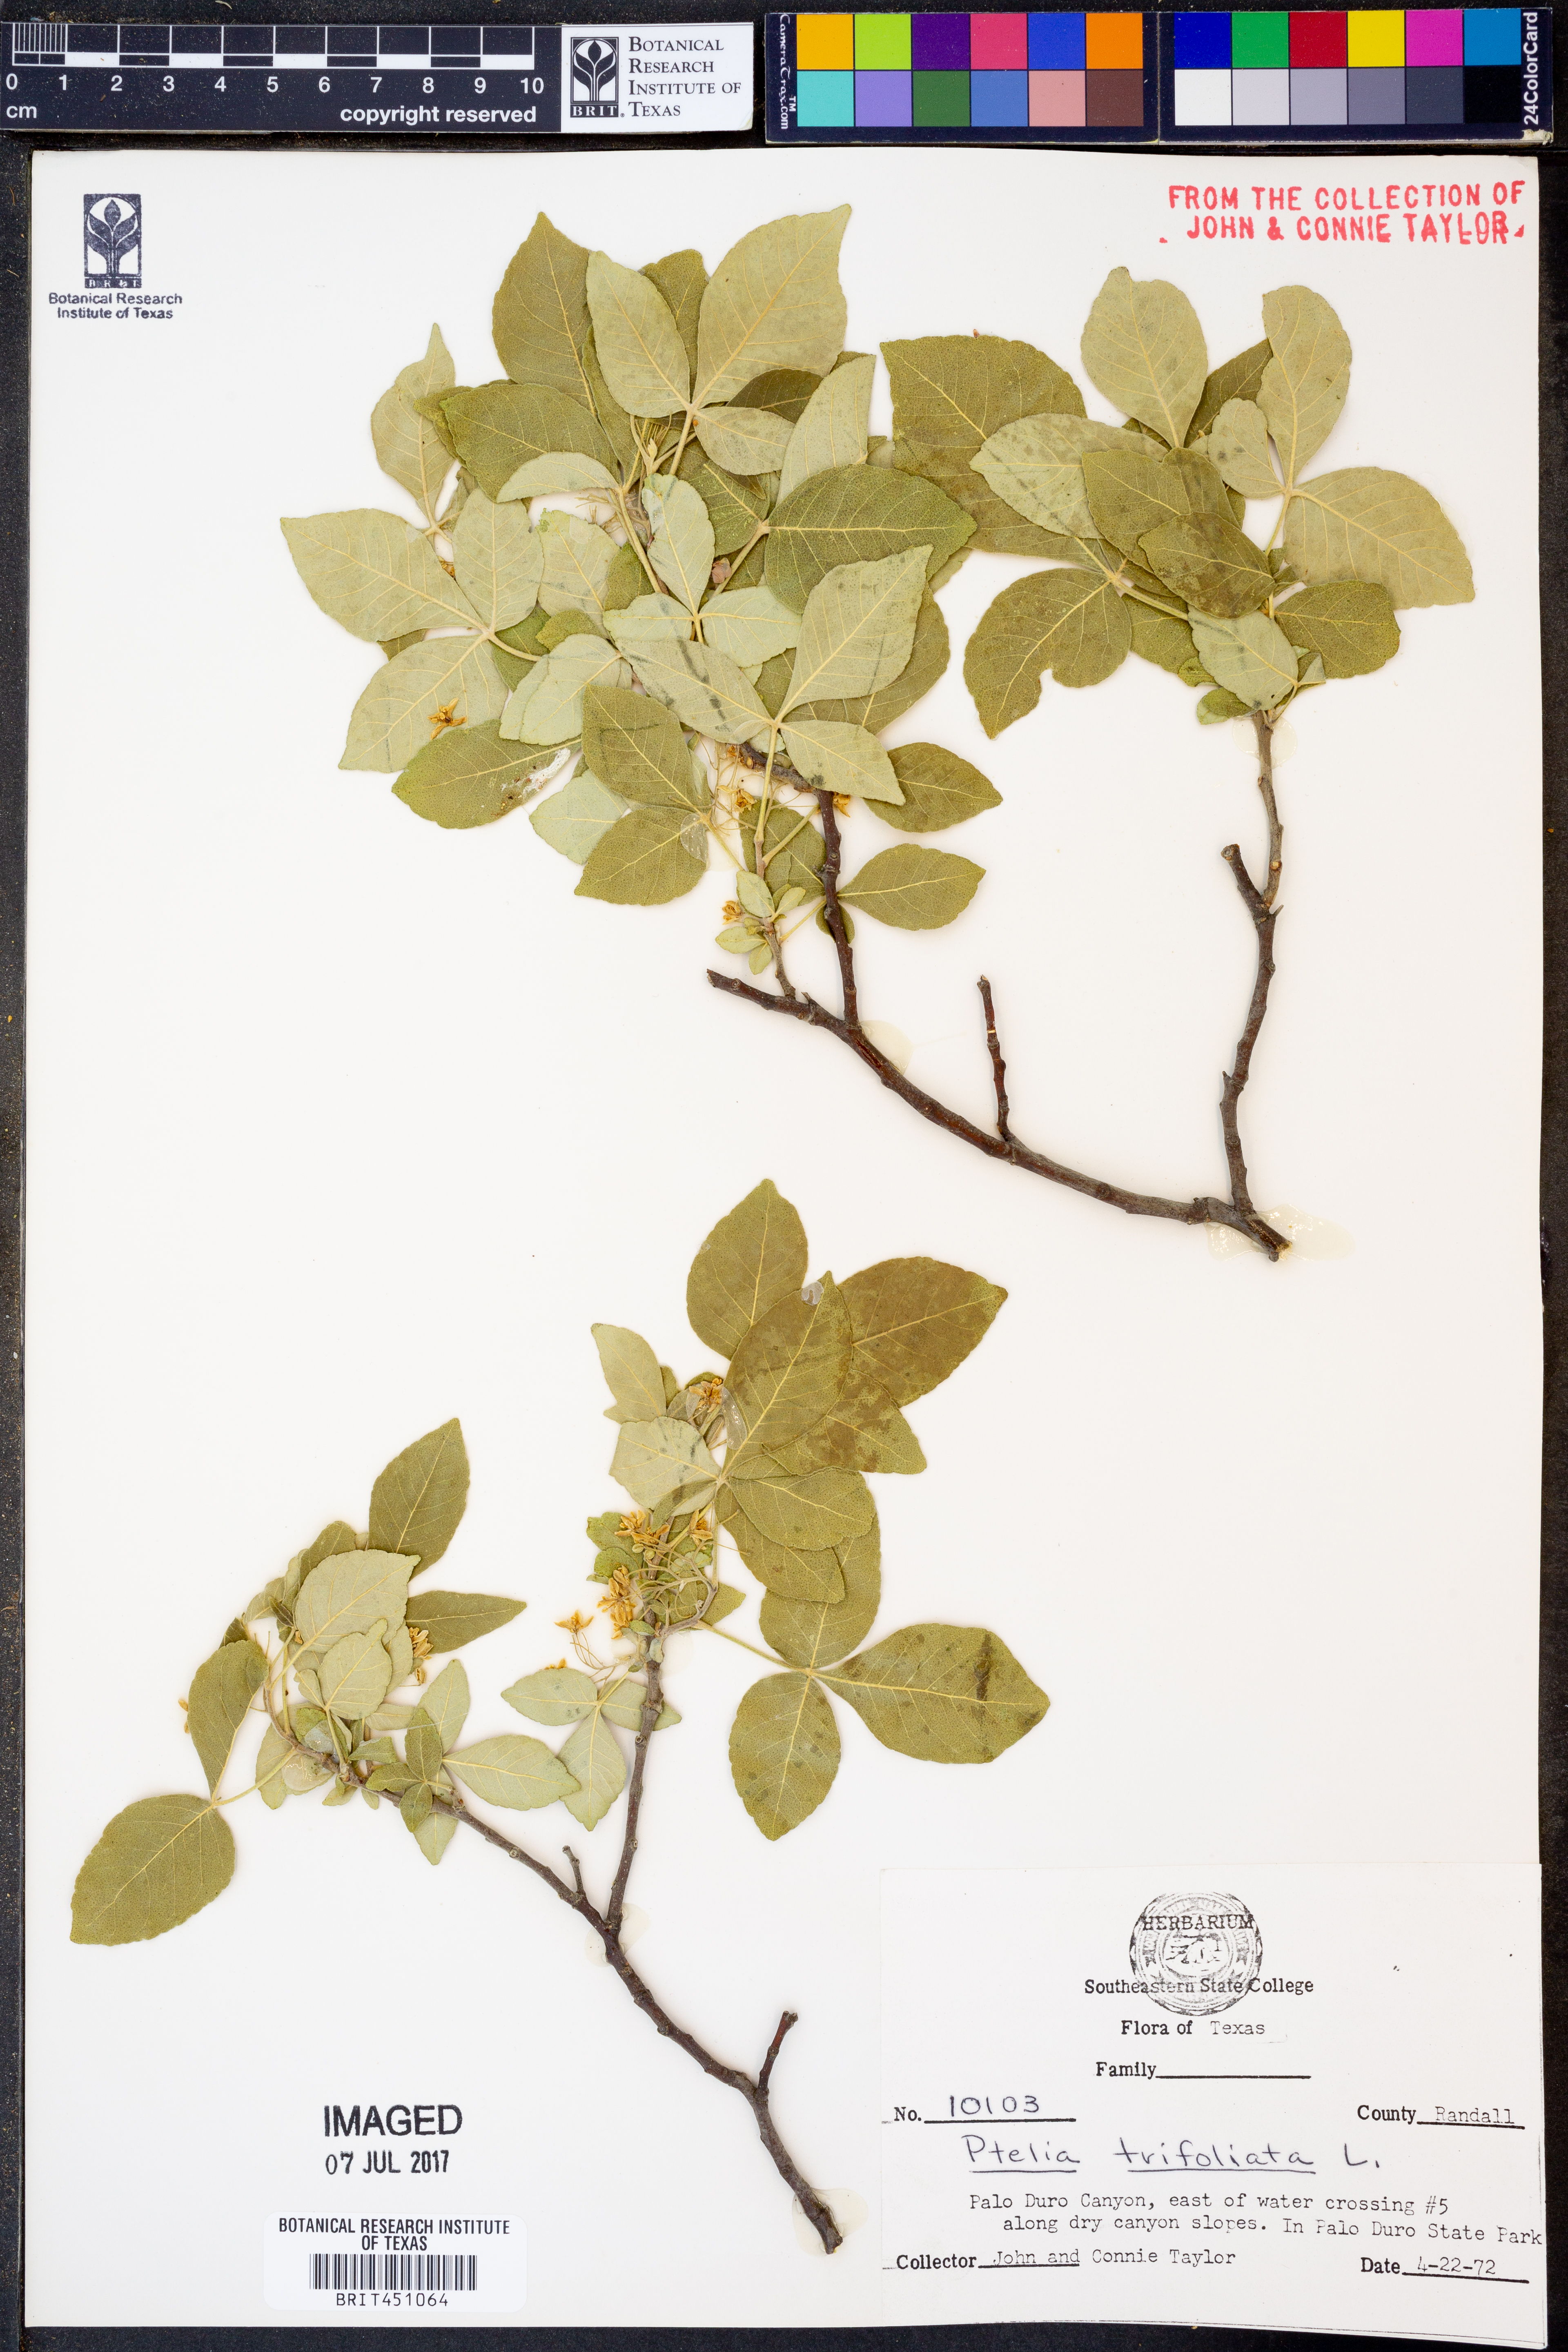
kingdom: Plantae
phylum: Tracheophyta
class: Magnoliopsida
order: Sapindales
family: Rutaceae
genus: Ptelea
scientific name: Ptelea trifoliata
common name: Common hop-tree
